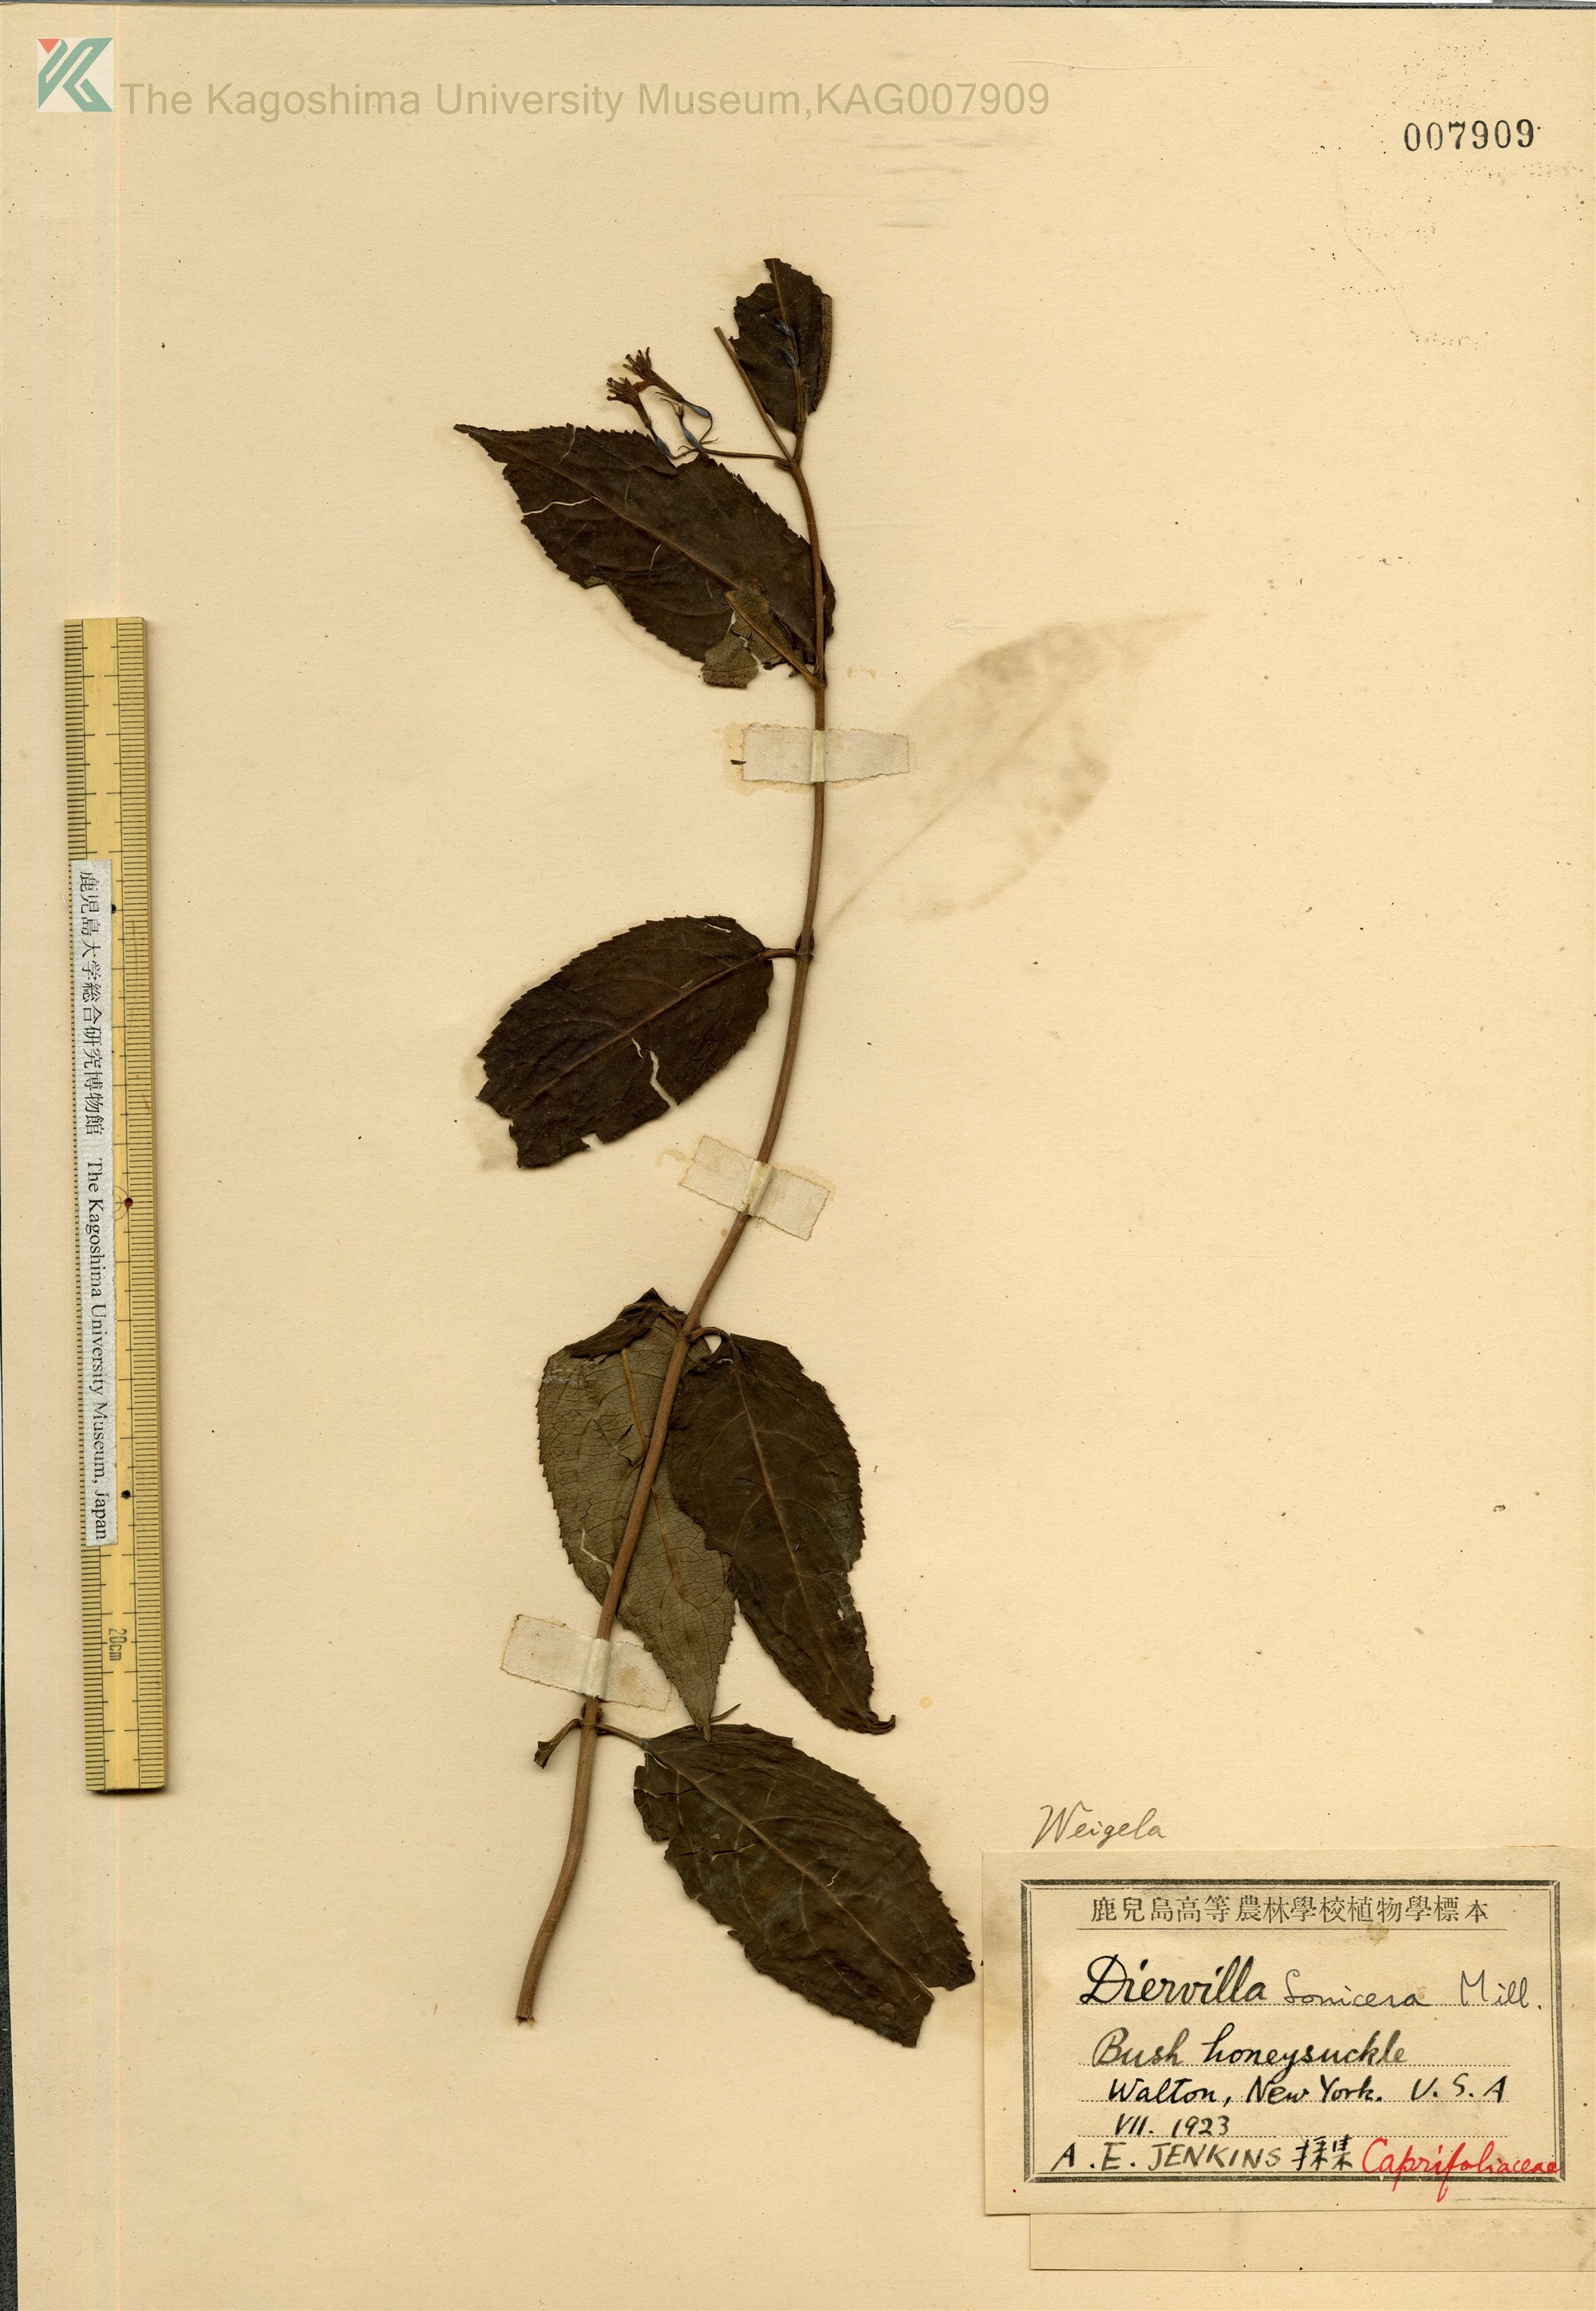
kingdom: Plantae
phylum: Tracheophyta
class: Magnoliopsida
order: Dipsacales
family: Caprifoliaceae
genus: Diervilla
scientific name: Diervilla
